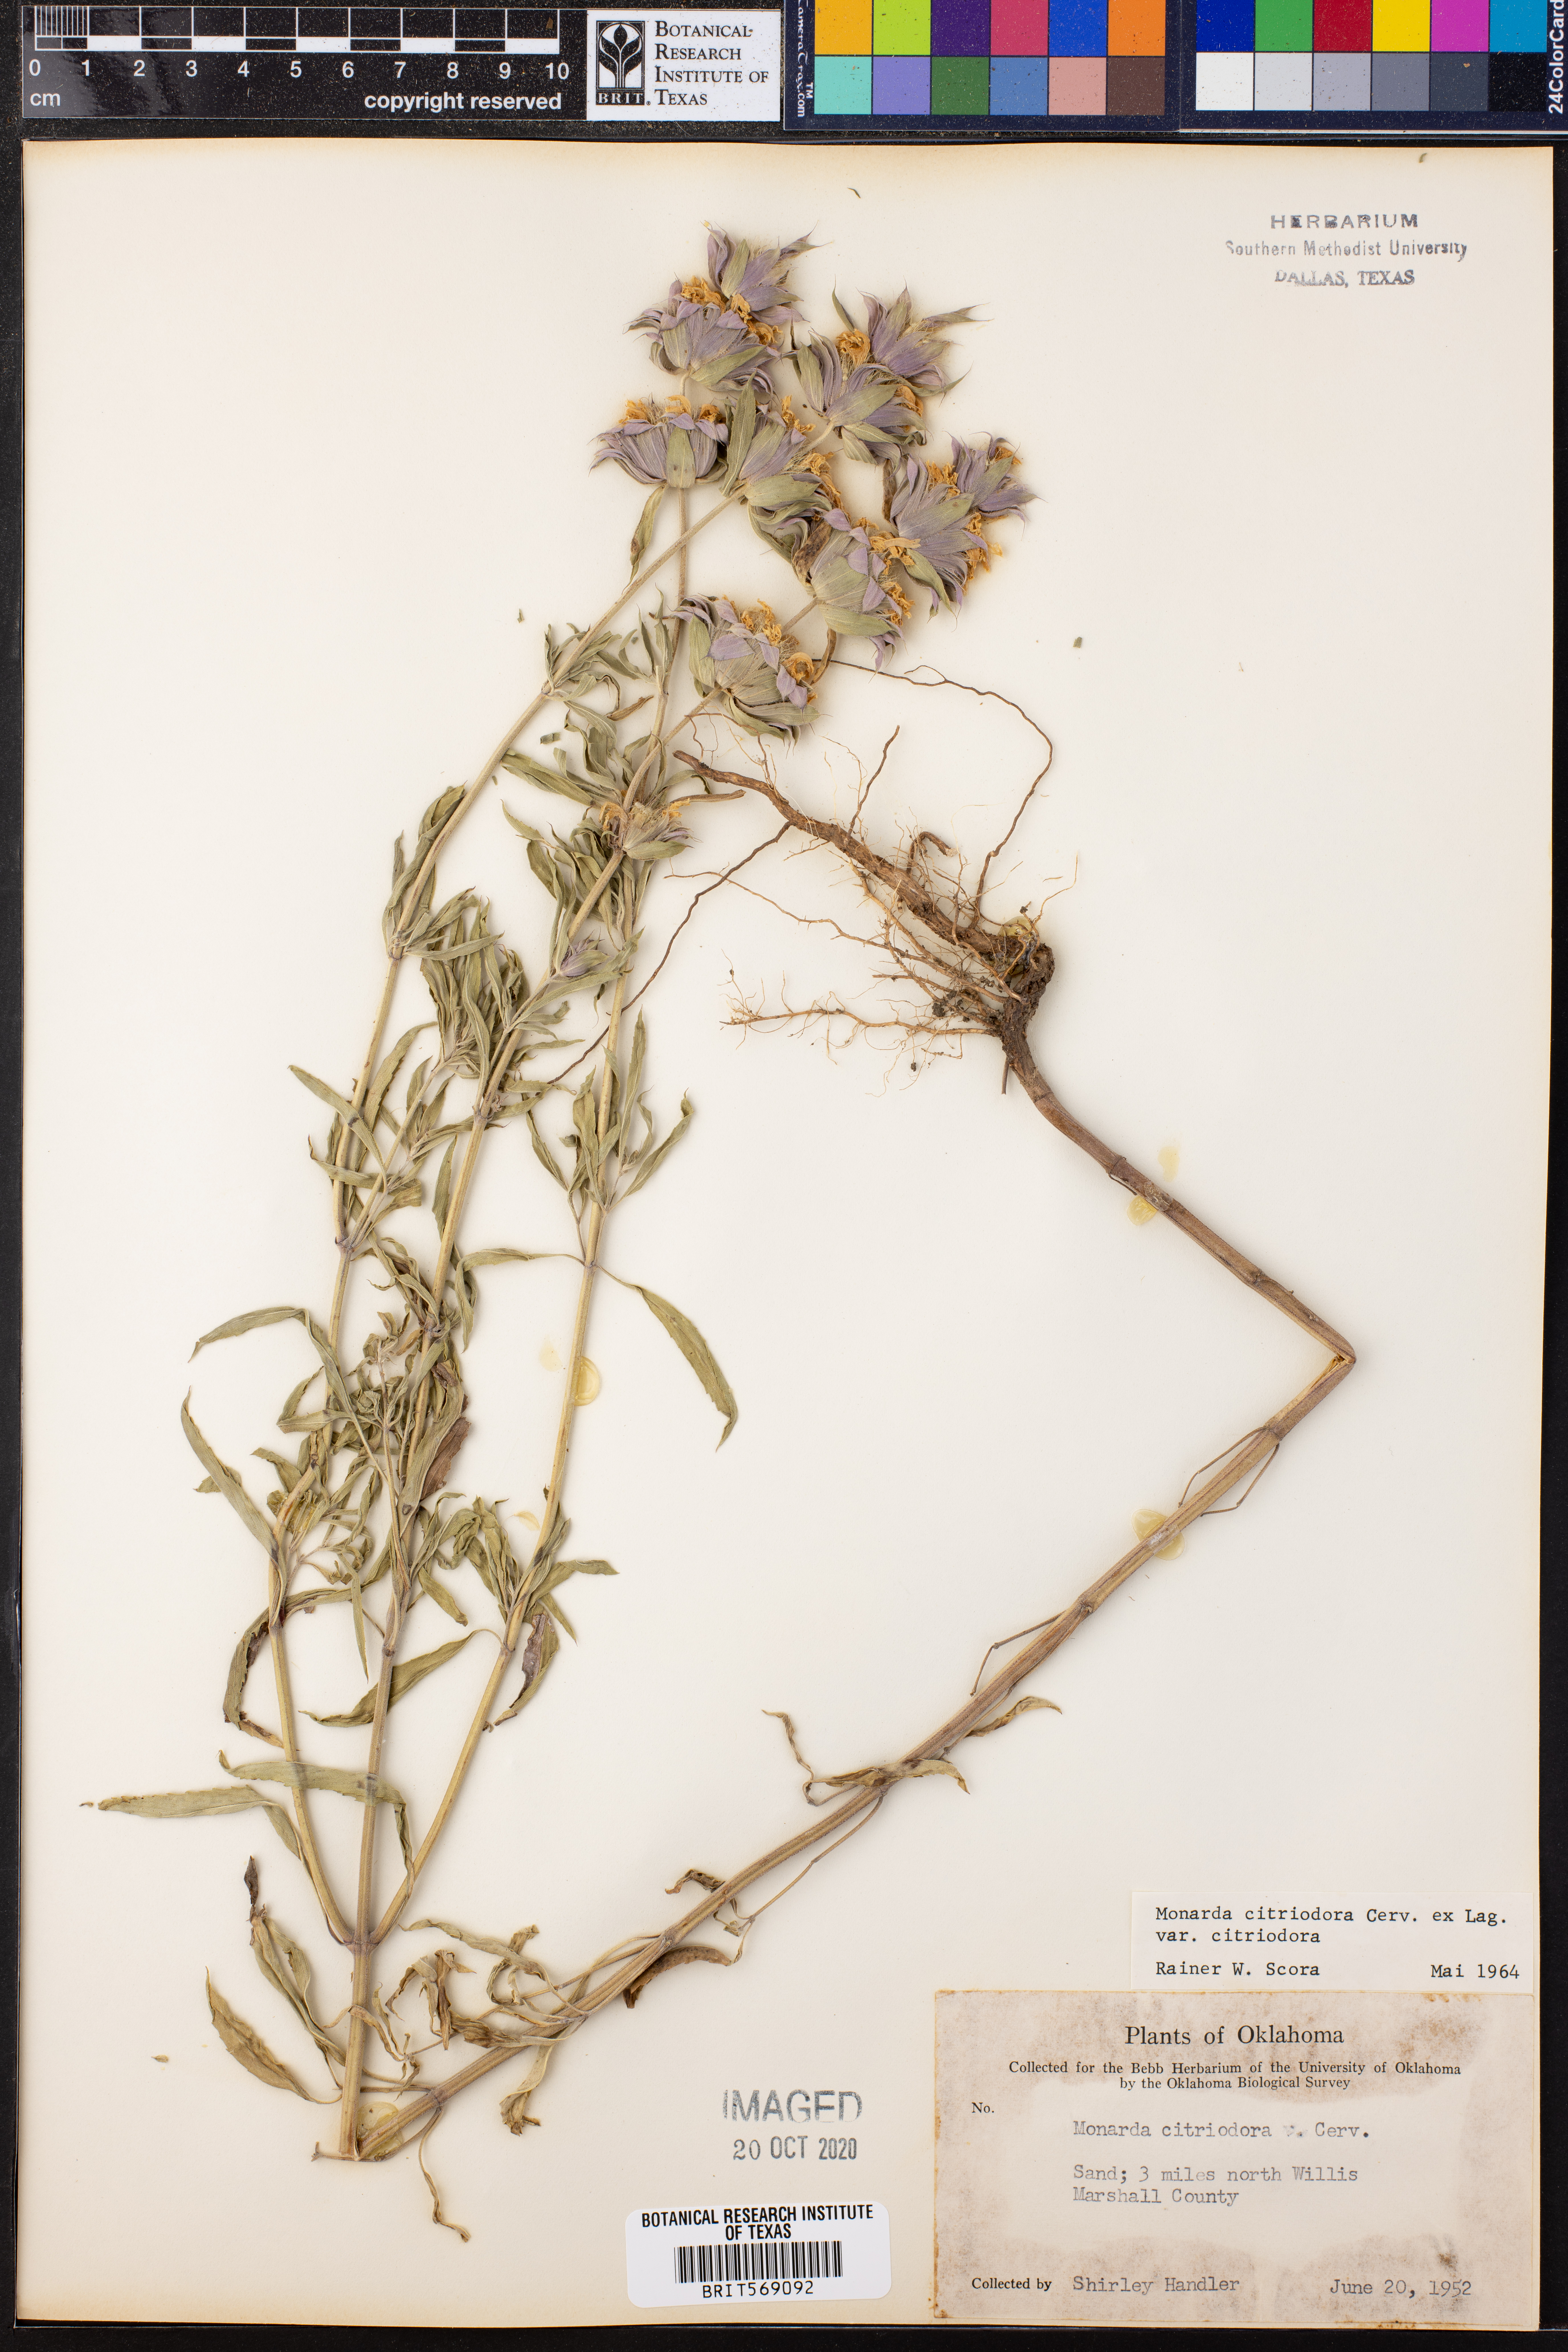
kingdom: Plantae
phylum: Tracheophyta
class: Magnoliopsida
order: Lamiales
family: Lamiaceae
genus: Monarda
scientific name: Monarda citriodora
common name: Lemon beebalm
